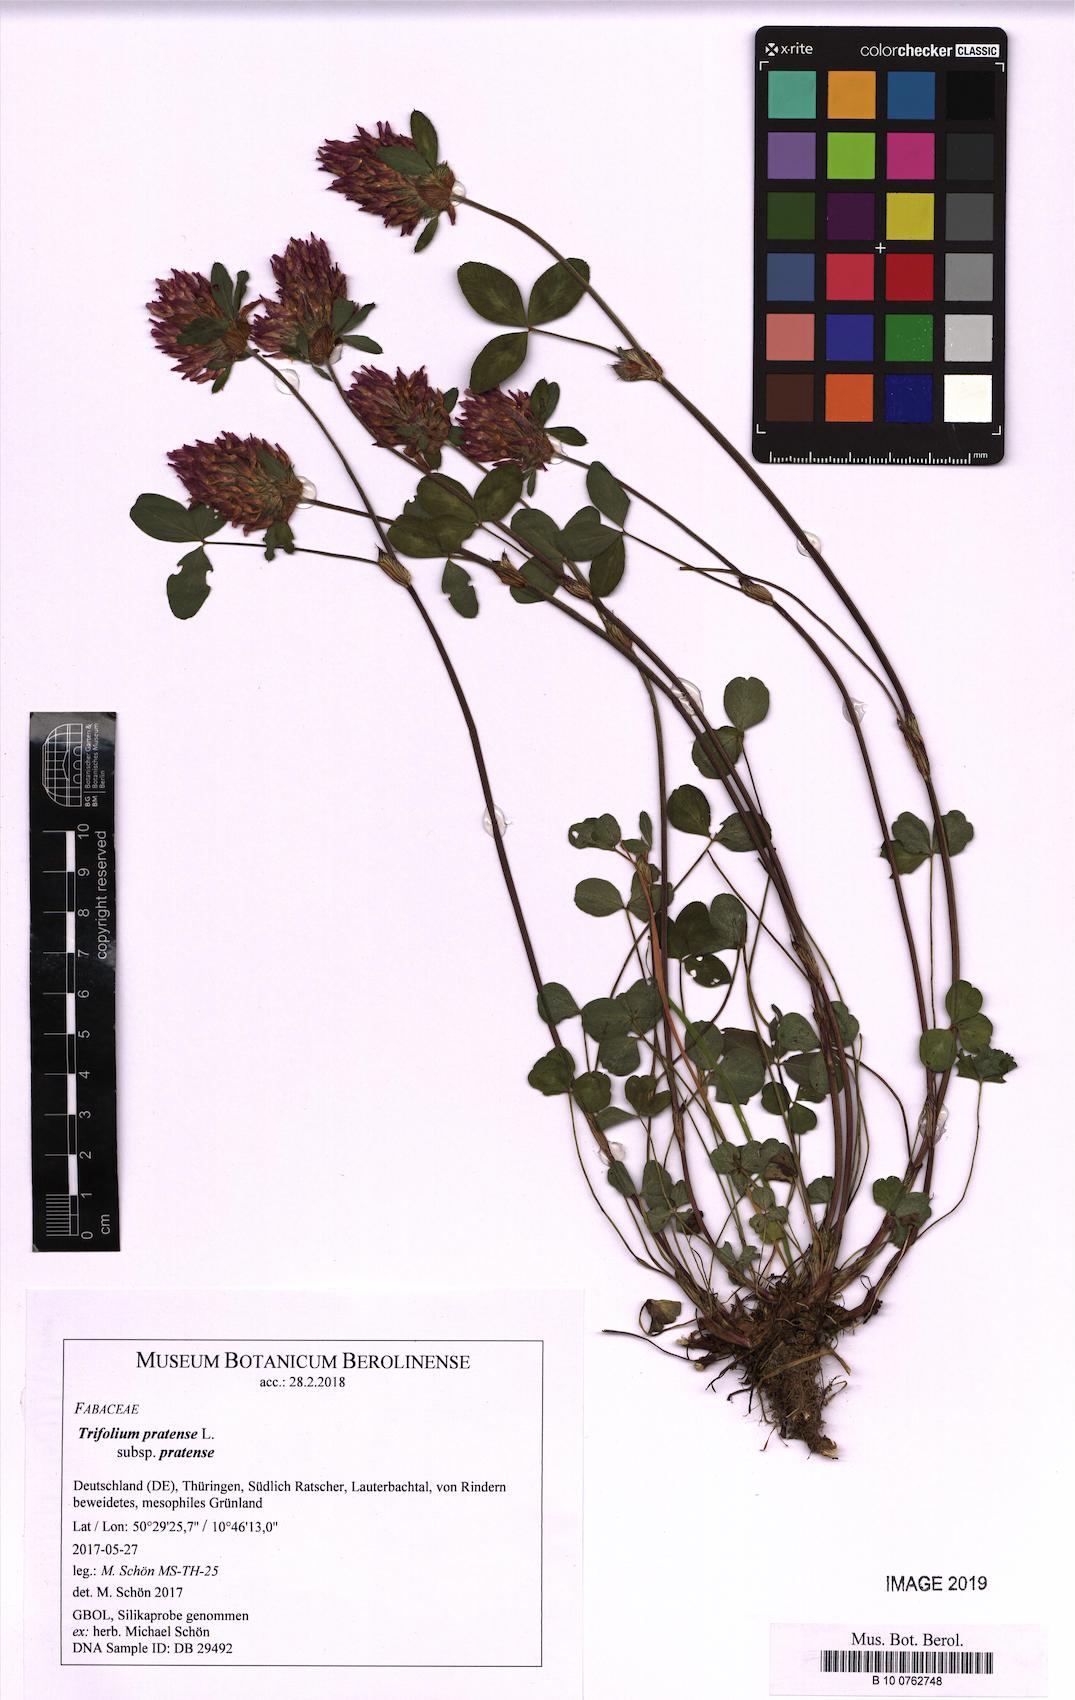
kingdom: Plantae
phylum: Tracheophyta
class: Magnoliopsida
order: Fabales
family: Fabaceae
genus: Trifolium
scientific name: Trifolium pratense
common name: Red clover
